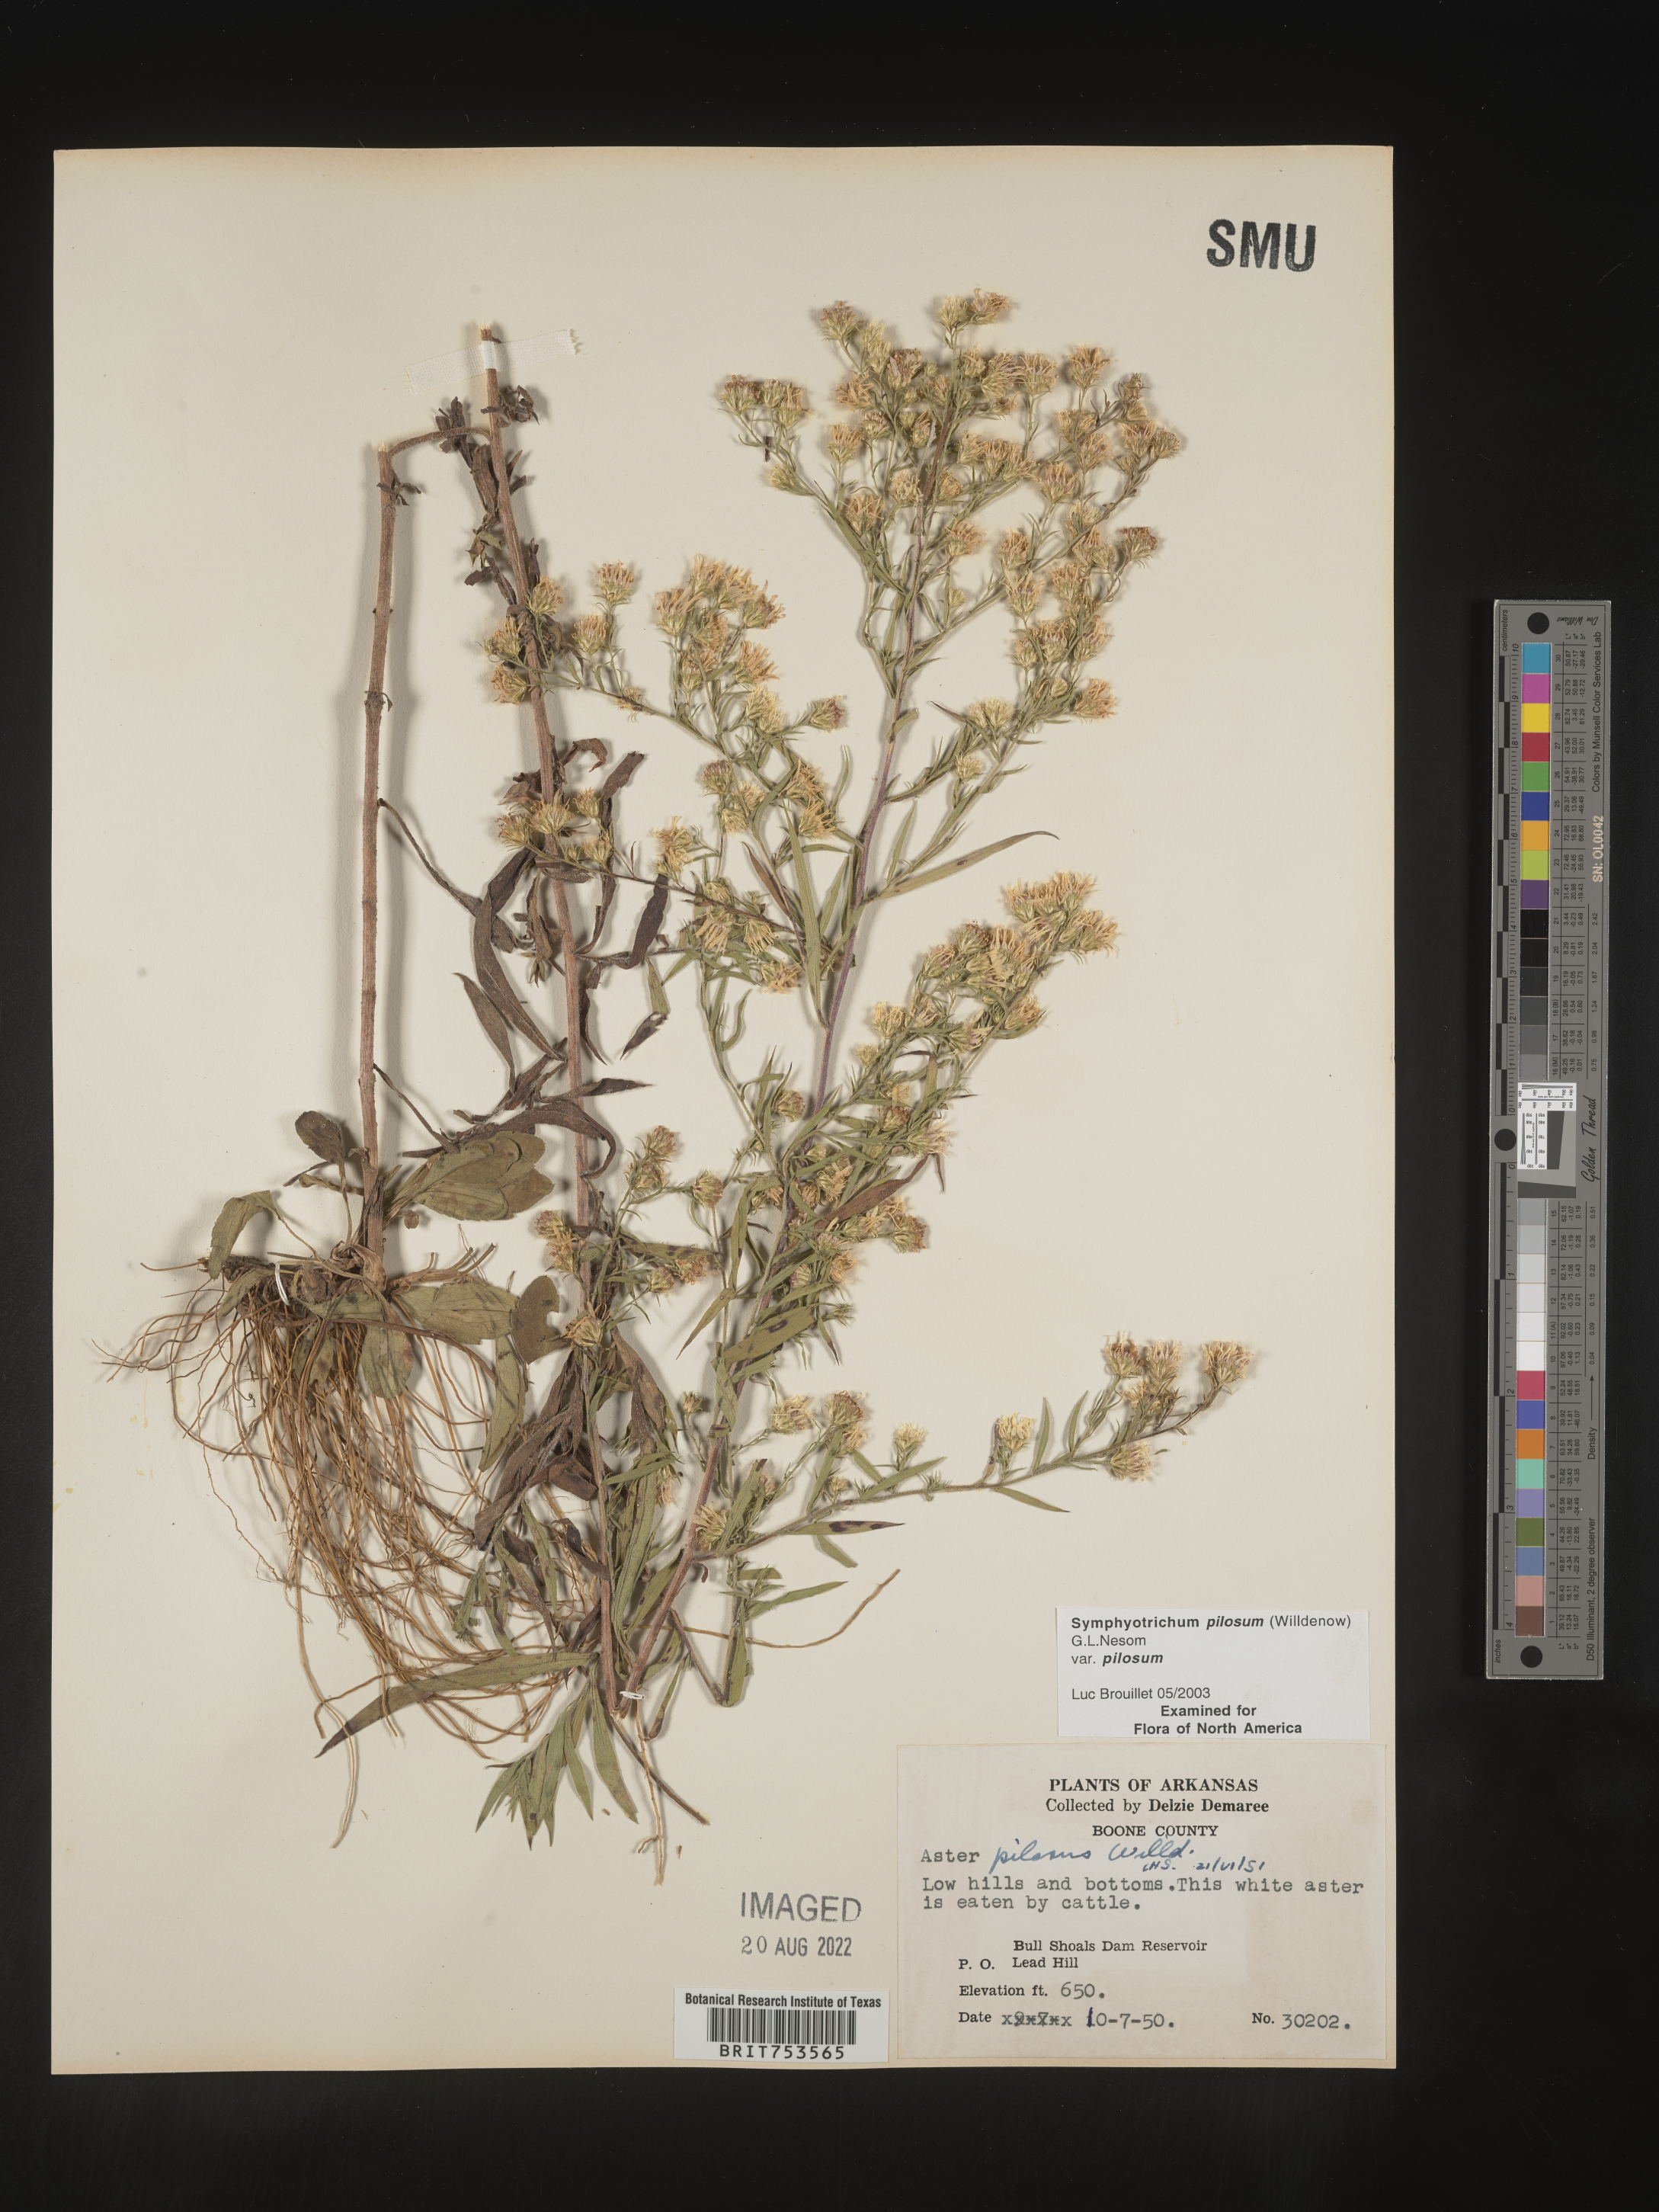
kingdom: Plantae
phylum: Tracheophyta
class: Magnoliopsida
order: Asterales
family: Asteraceae
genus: Symphyotrichum
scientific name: Symphyotrichum pilosum
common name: Awl aster
